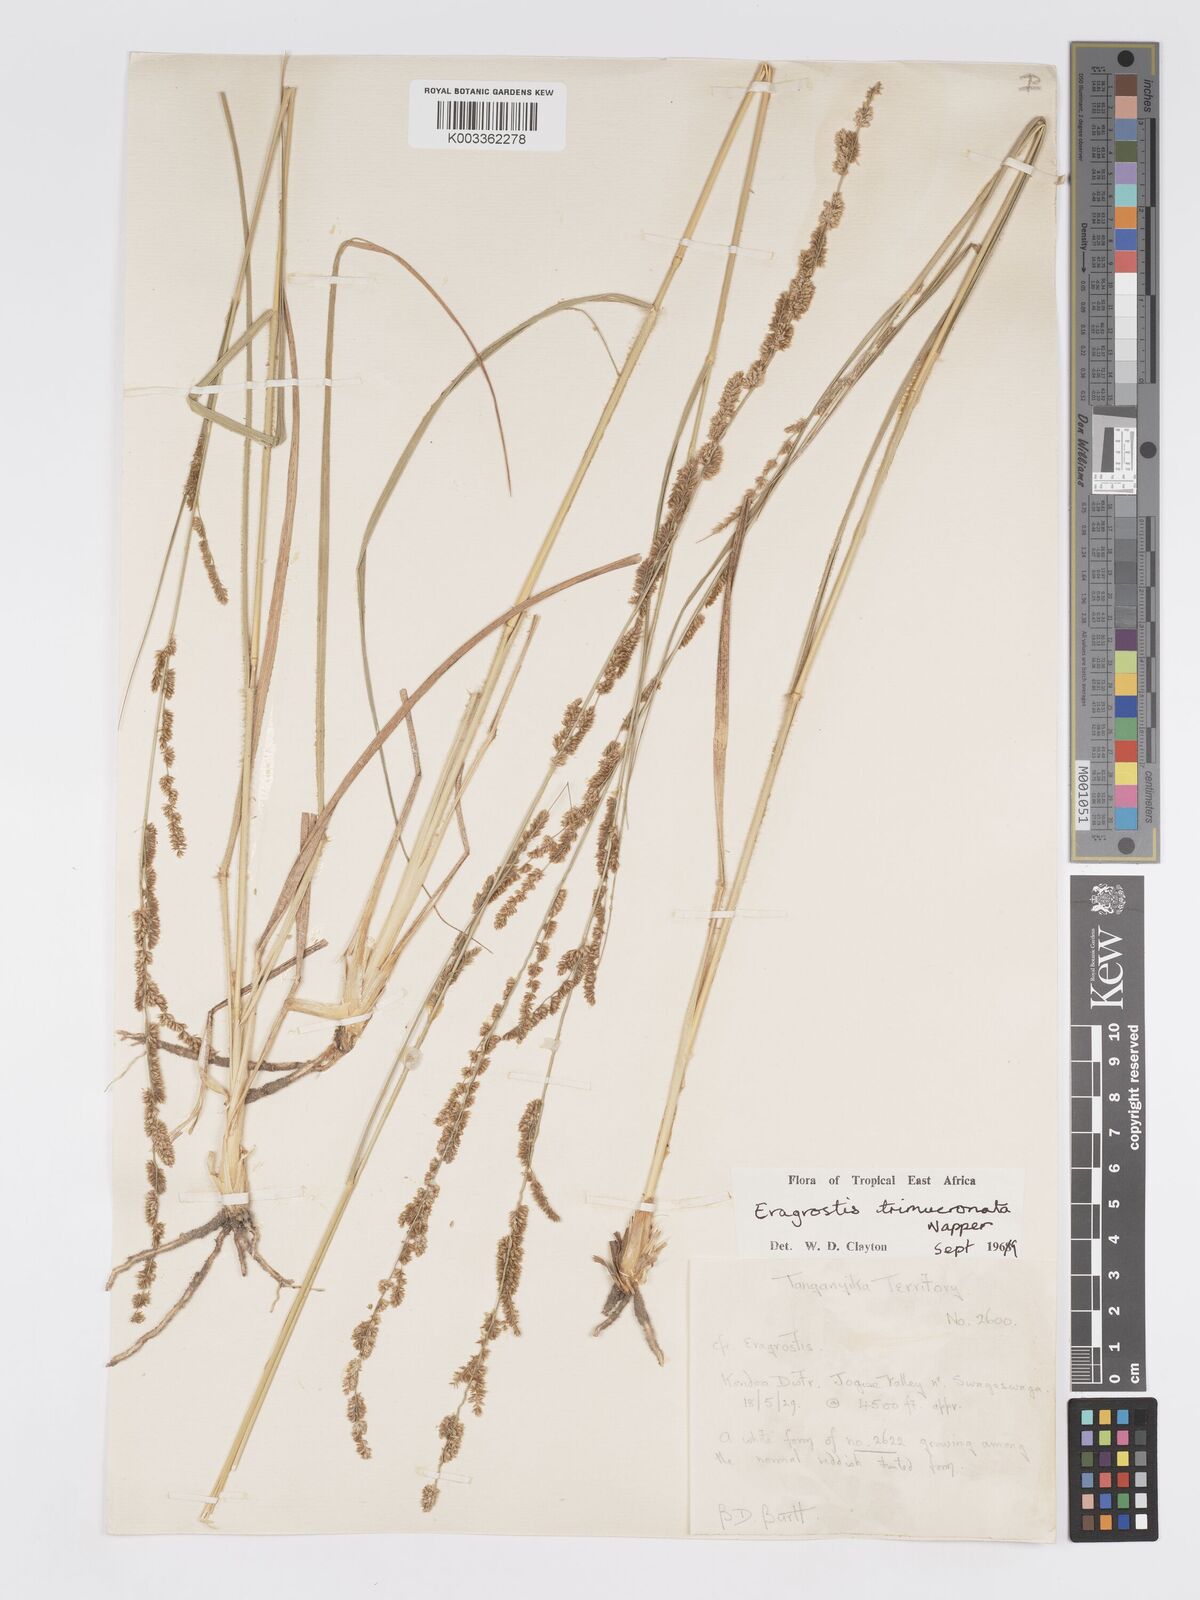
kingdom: Plantae
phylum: Tracheophyta
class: Liliopsida
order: Poales
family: Poaceae
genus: Eragrostis
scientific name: Eragrostis trimucronata
